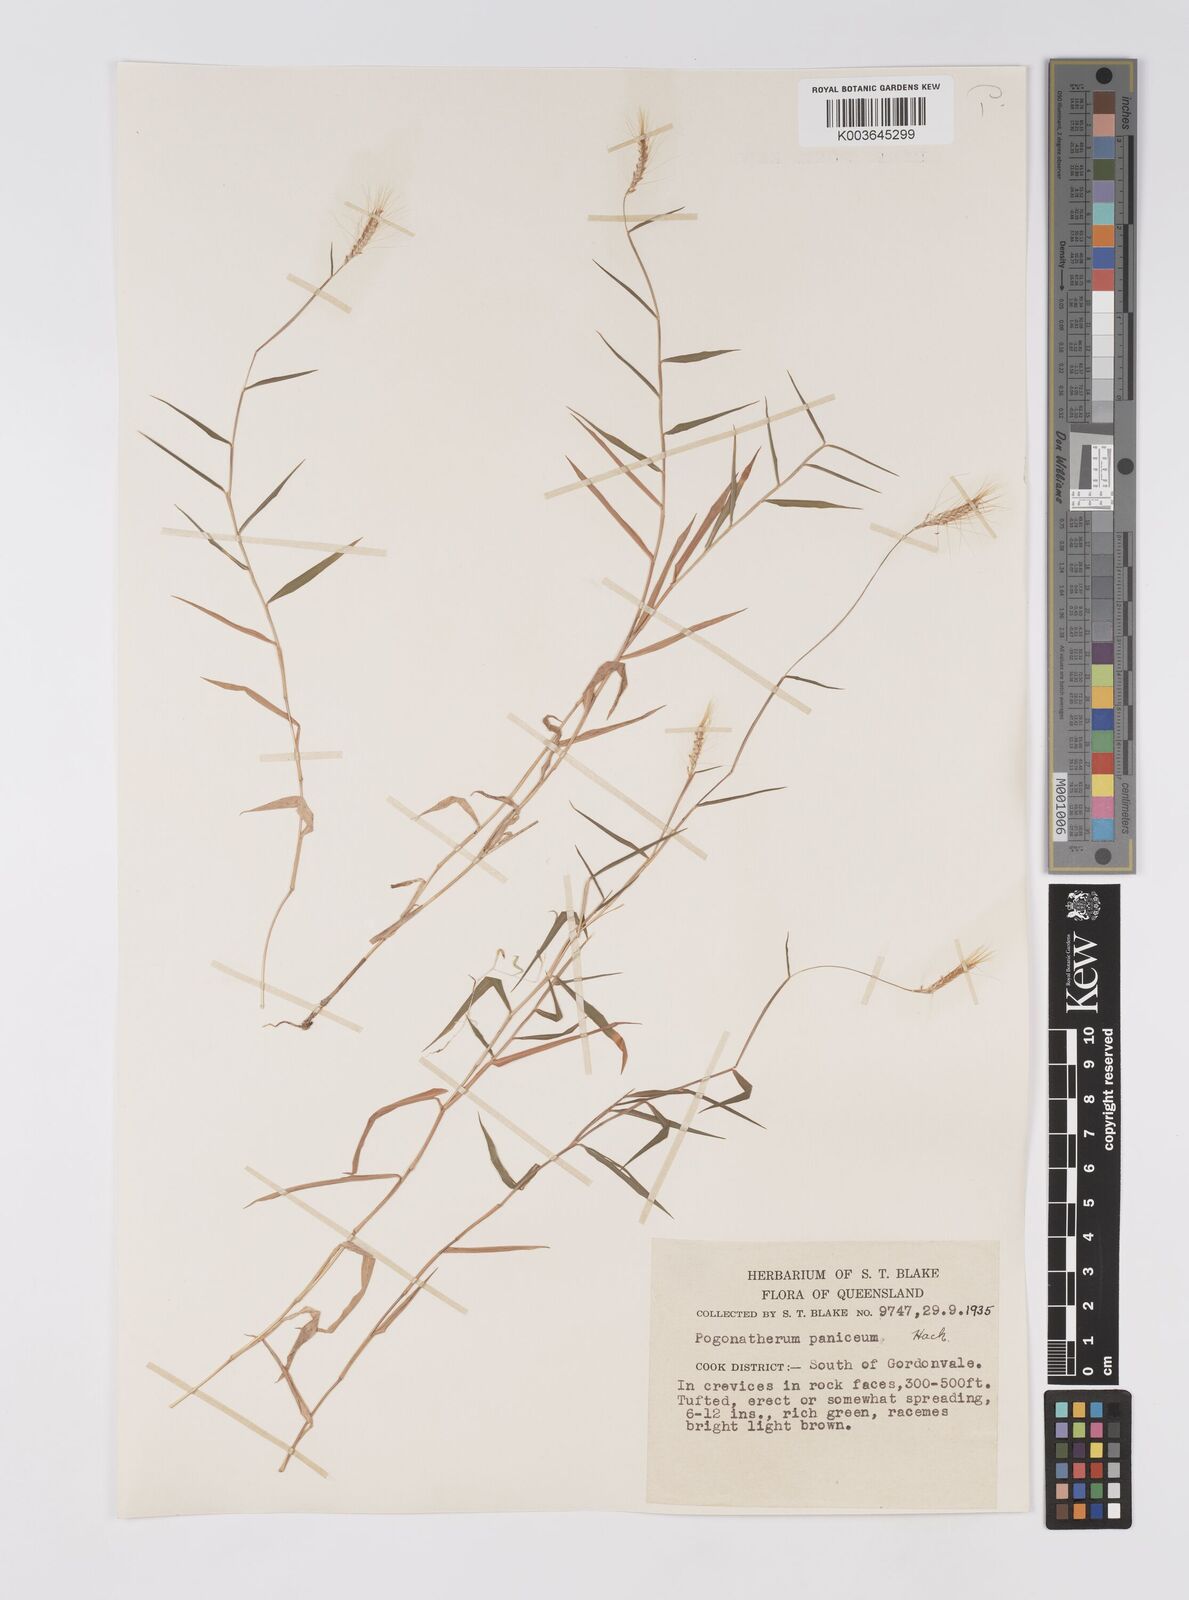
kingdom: Plantae
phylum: Tracheophyta
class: Liliopsida
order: Poales
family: Poaceae
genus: Pogonatherum
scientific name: Pogonatherum paniceum
